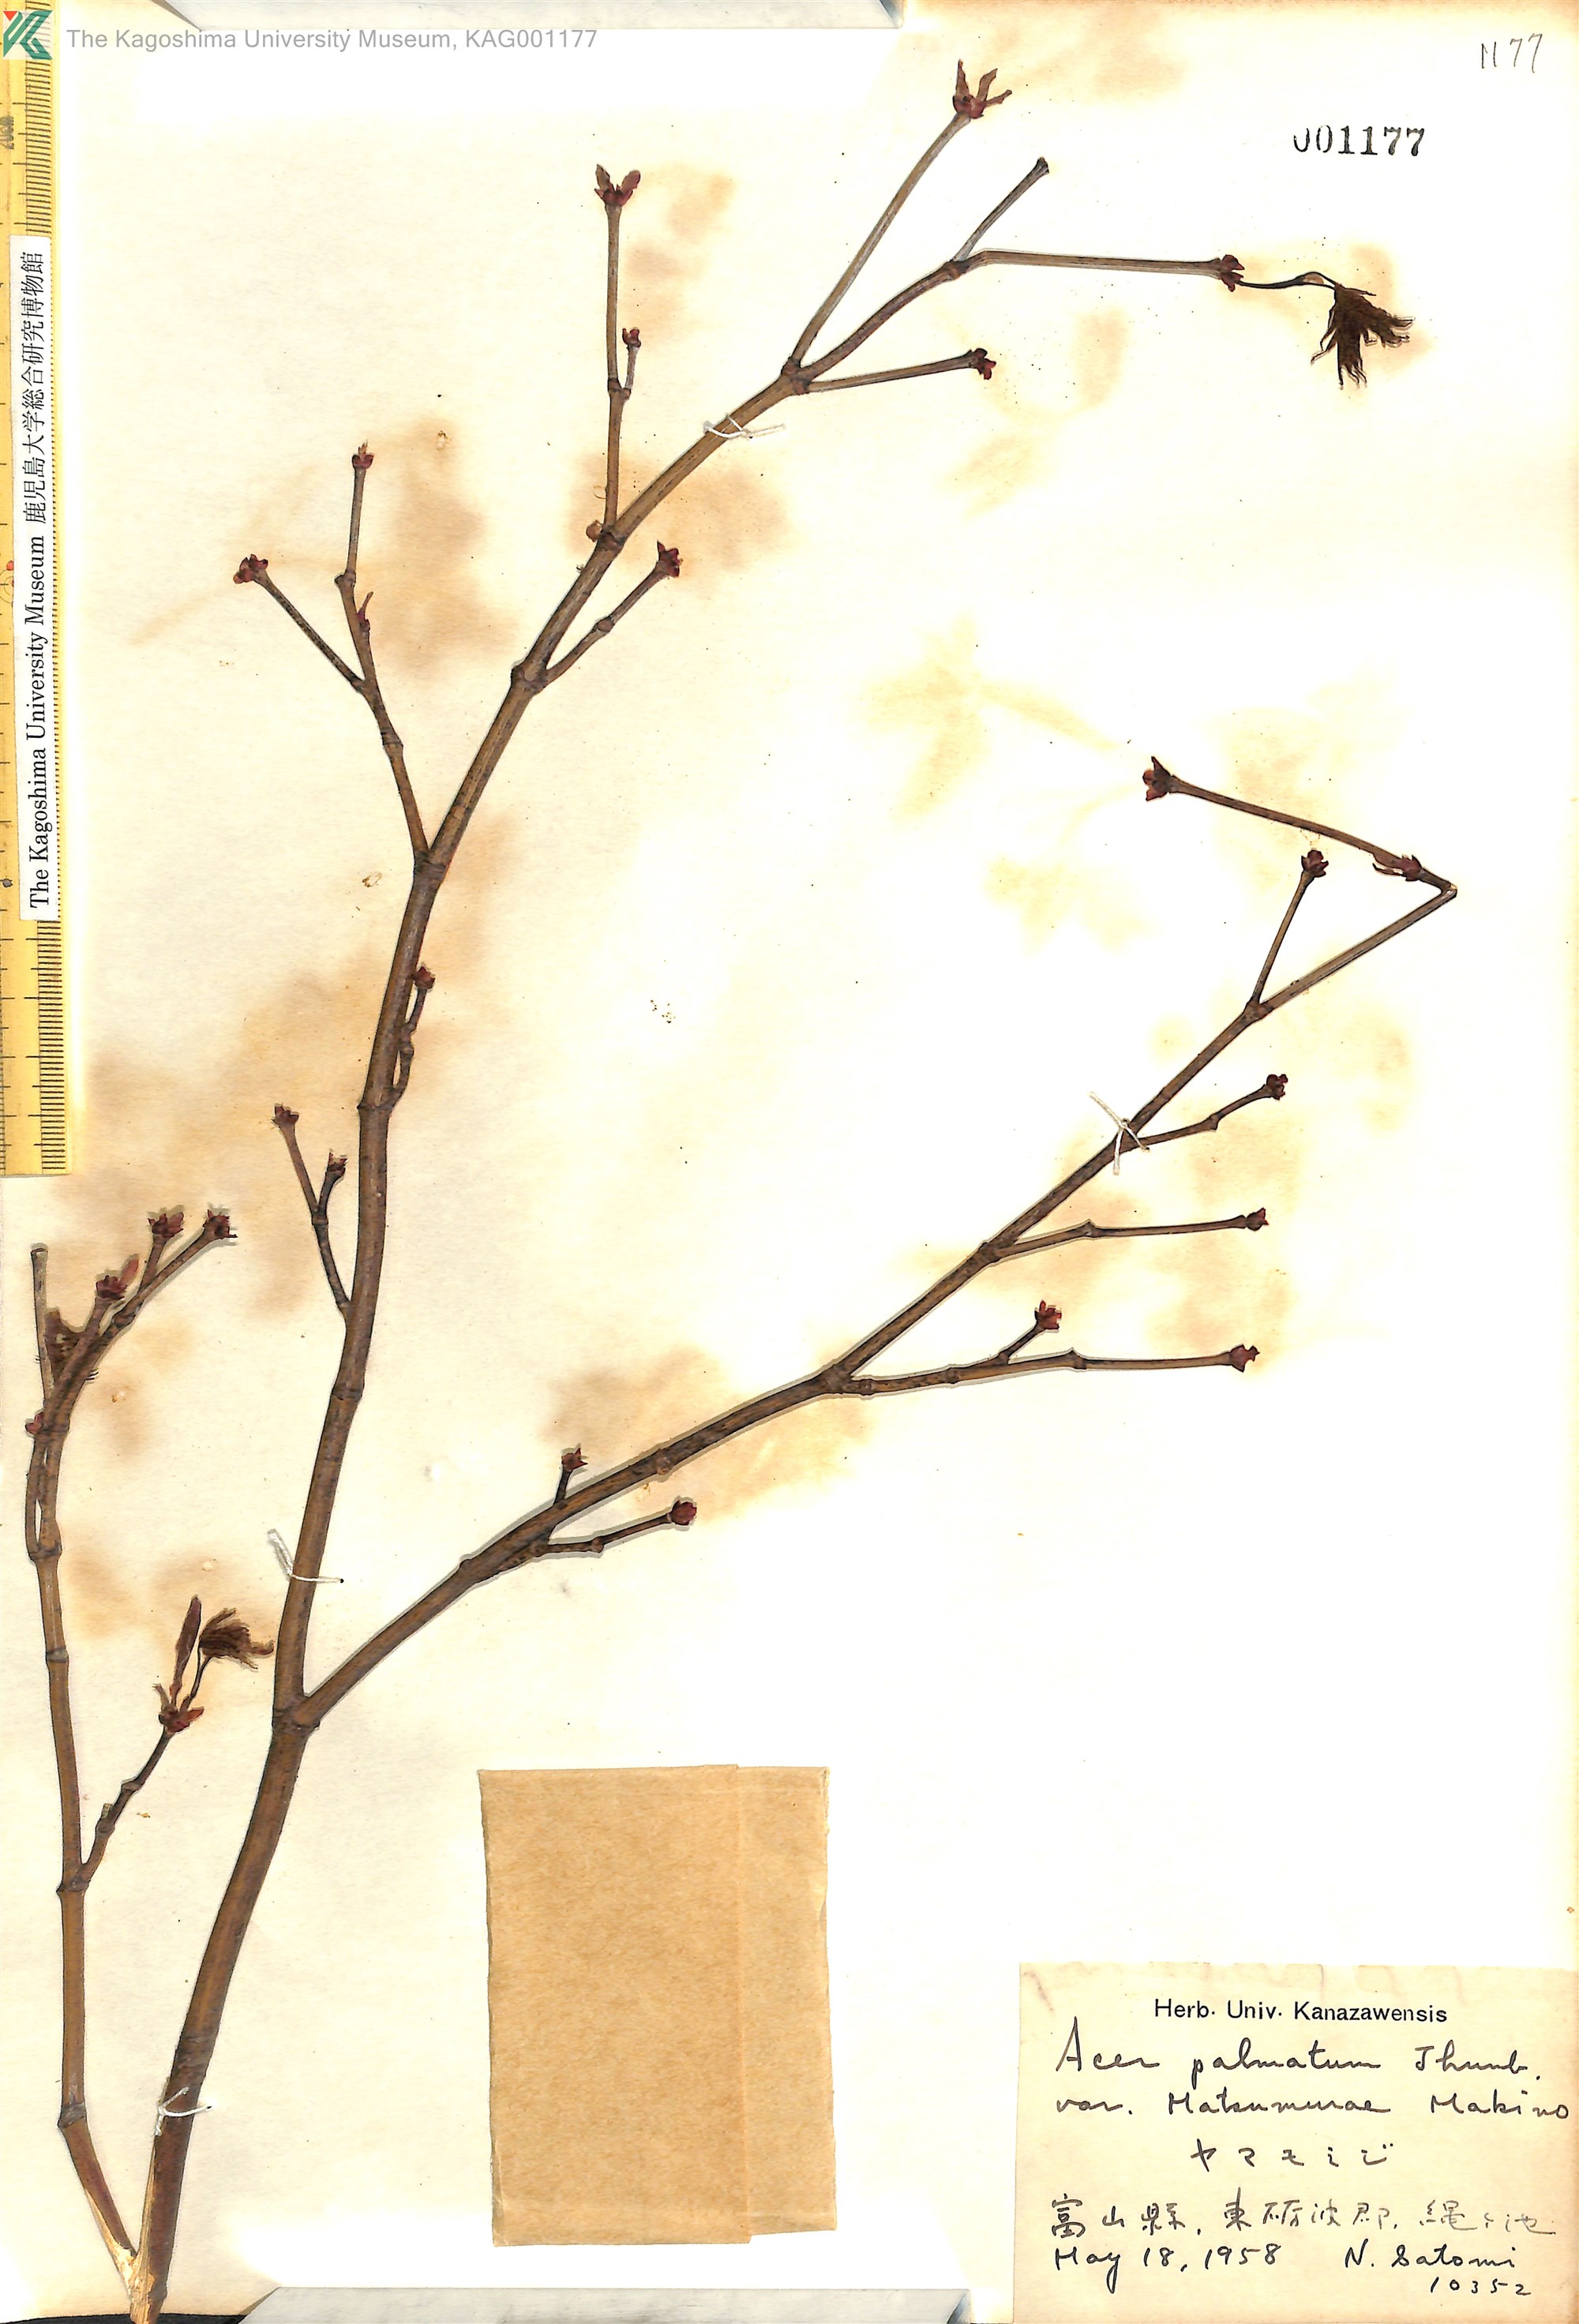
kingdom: Plantae
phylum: Tracheophyta
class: Magnoliopsida
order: Sapindales
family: Sapindaceae
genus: Acer
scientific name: Acer palmatum
